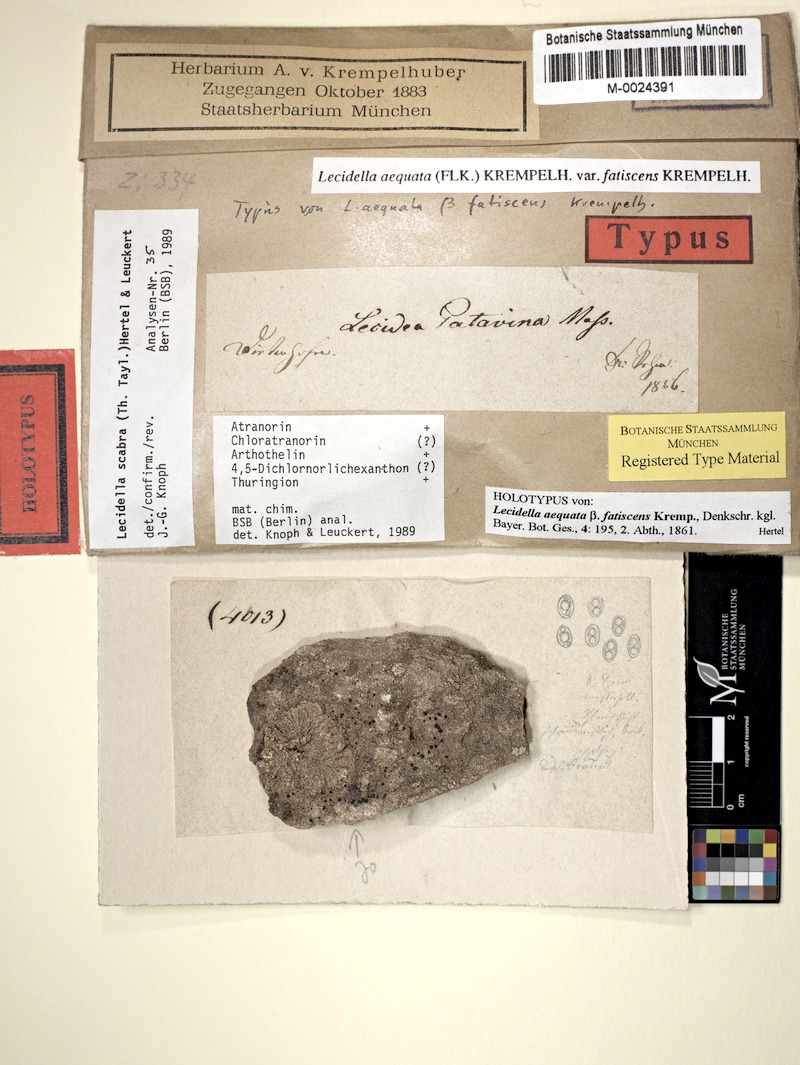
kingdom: Fungi
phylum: Ascomycota
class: Lecanoromycetes
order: Lecanorales
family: Lecanoraceae
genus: Lecidella
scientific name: Lecidella scabra
